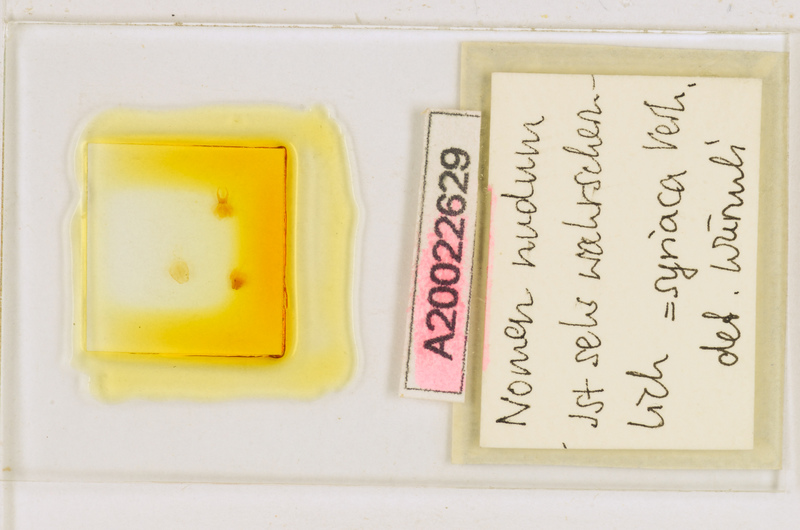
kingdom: Animalia
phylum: Arthropoda
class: Chilopoda
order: Scutigeromorpha
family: Scutigeridae
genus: Thereuonema
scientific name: Thereuonema
